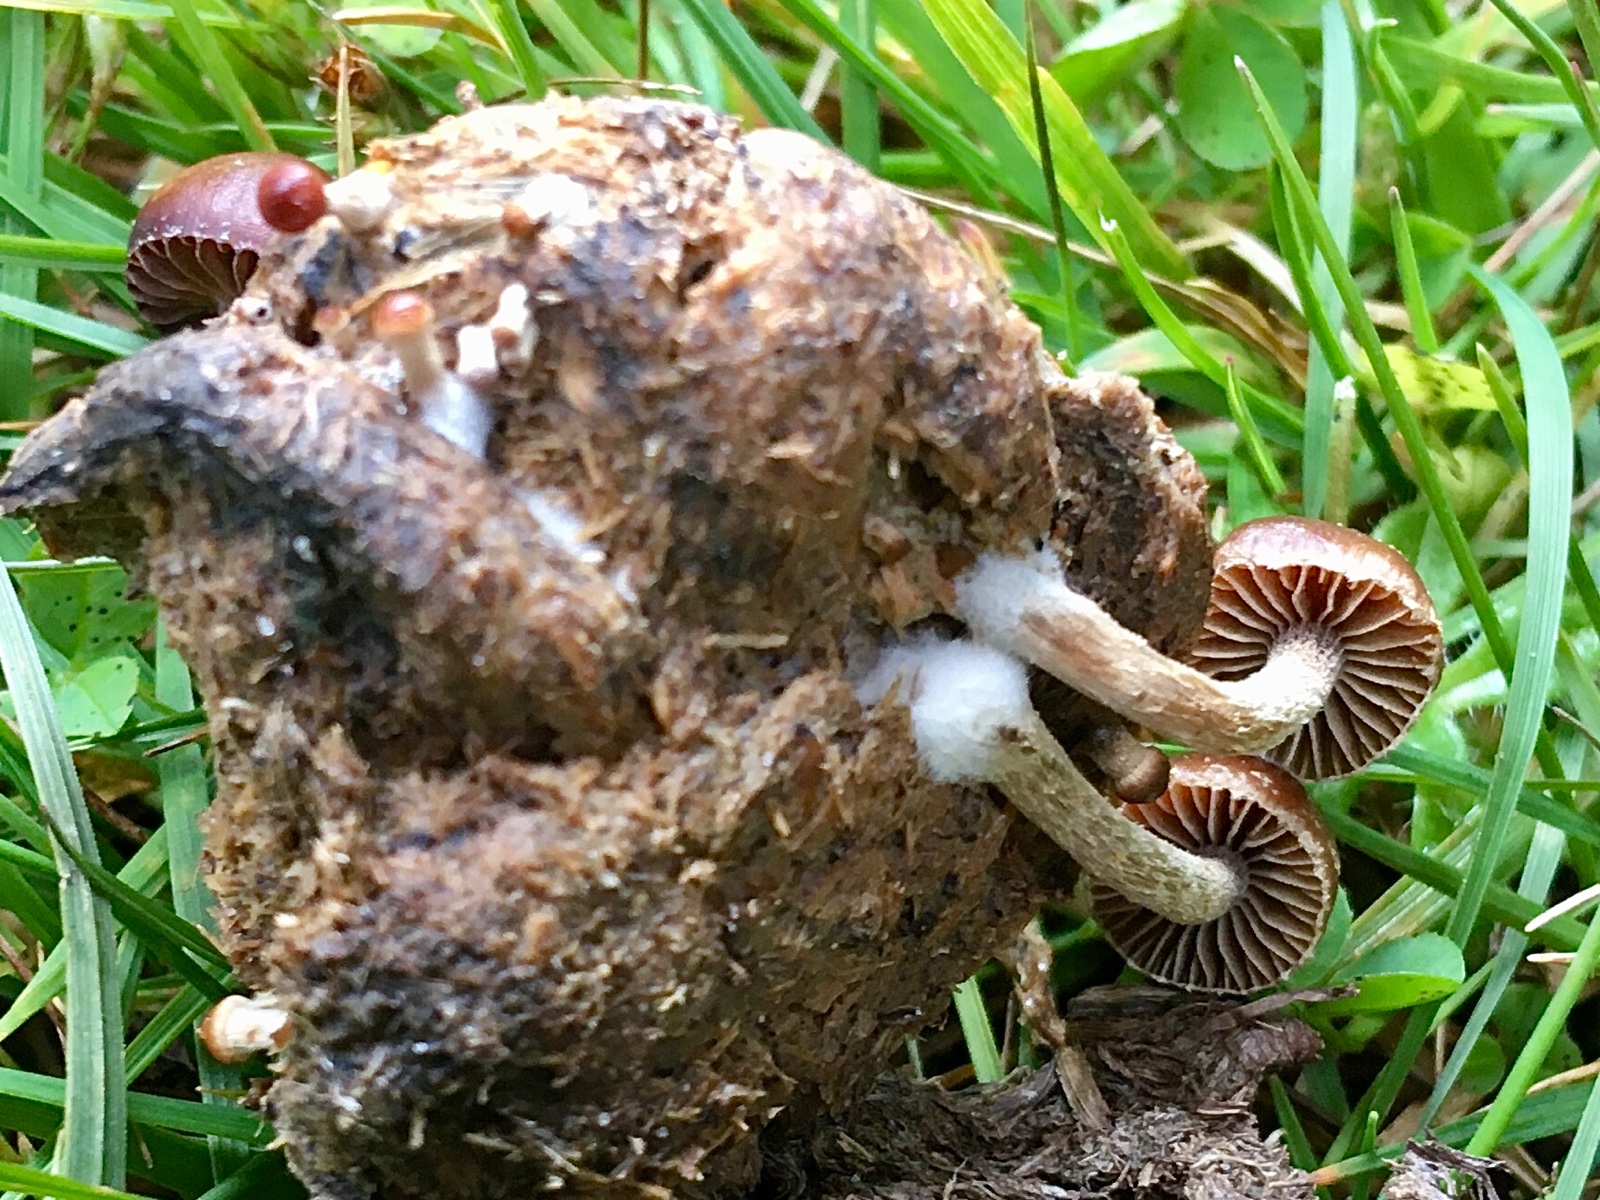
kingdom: Fungi
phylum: Basidiomycota
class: Agaricomycetes
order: Agaricales
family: Strophariaceae
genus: Deconica
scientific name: Deconica coprophila
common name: gødnings-stråhat
